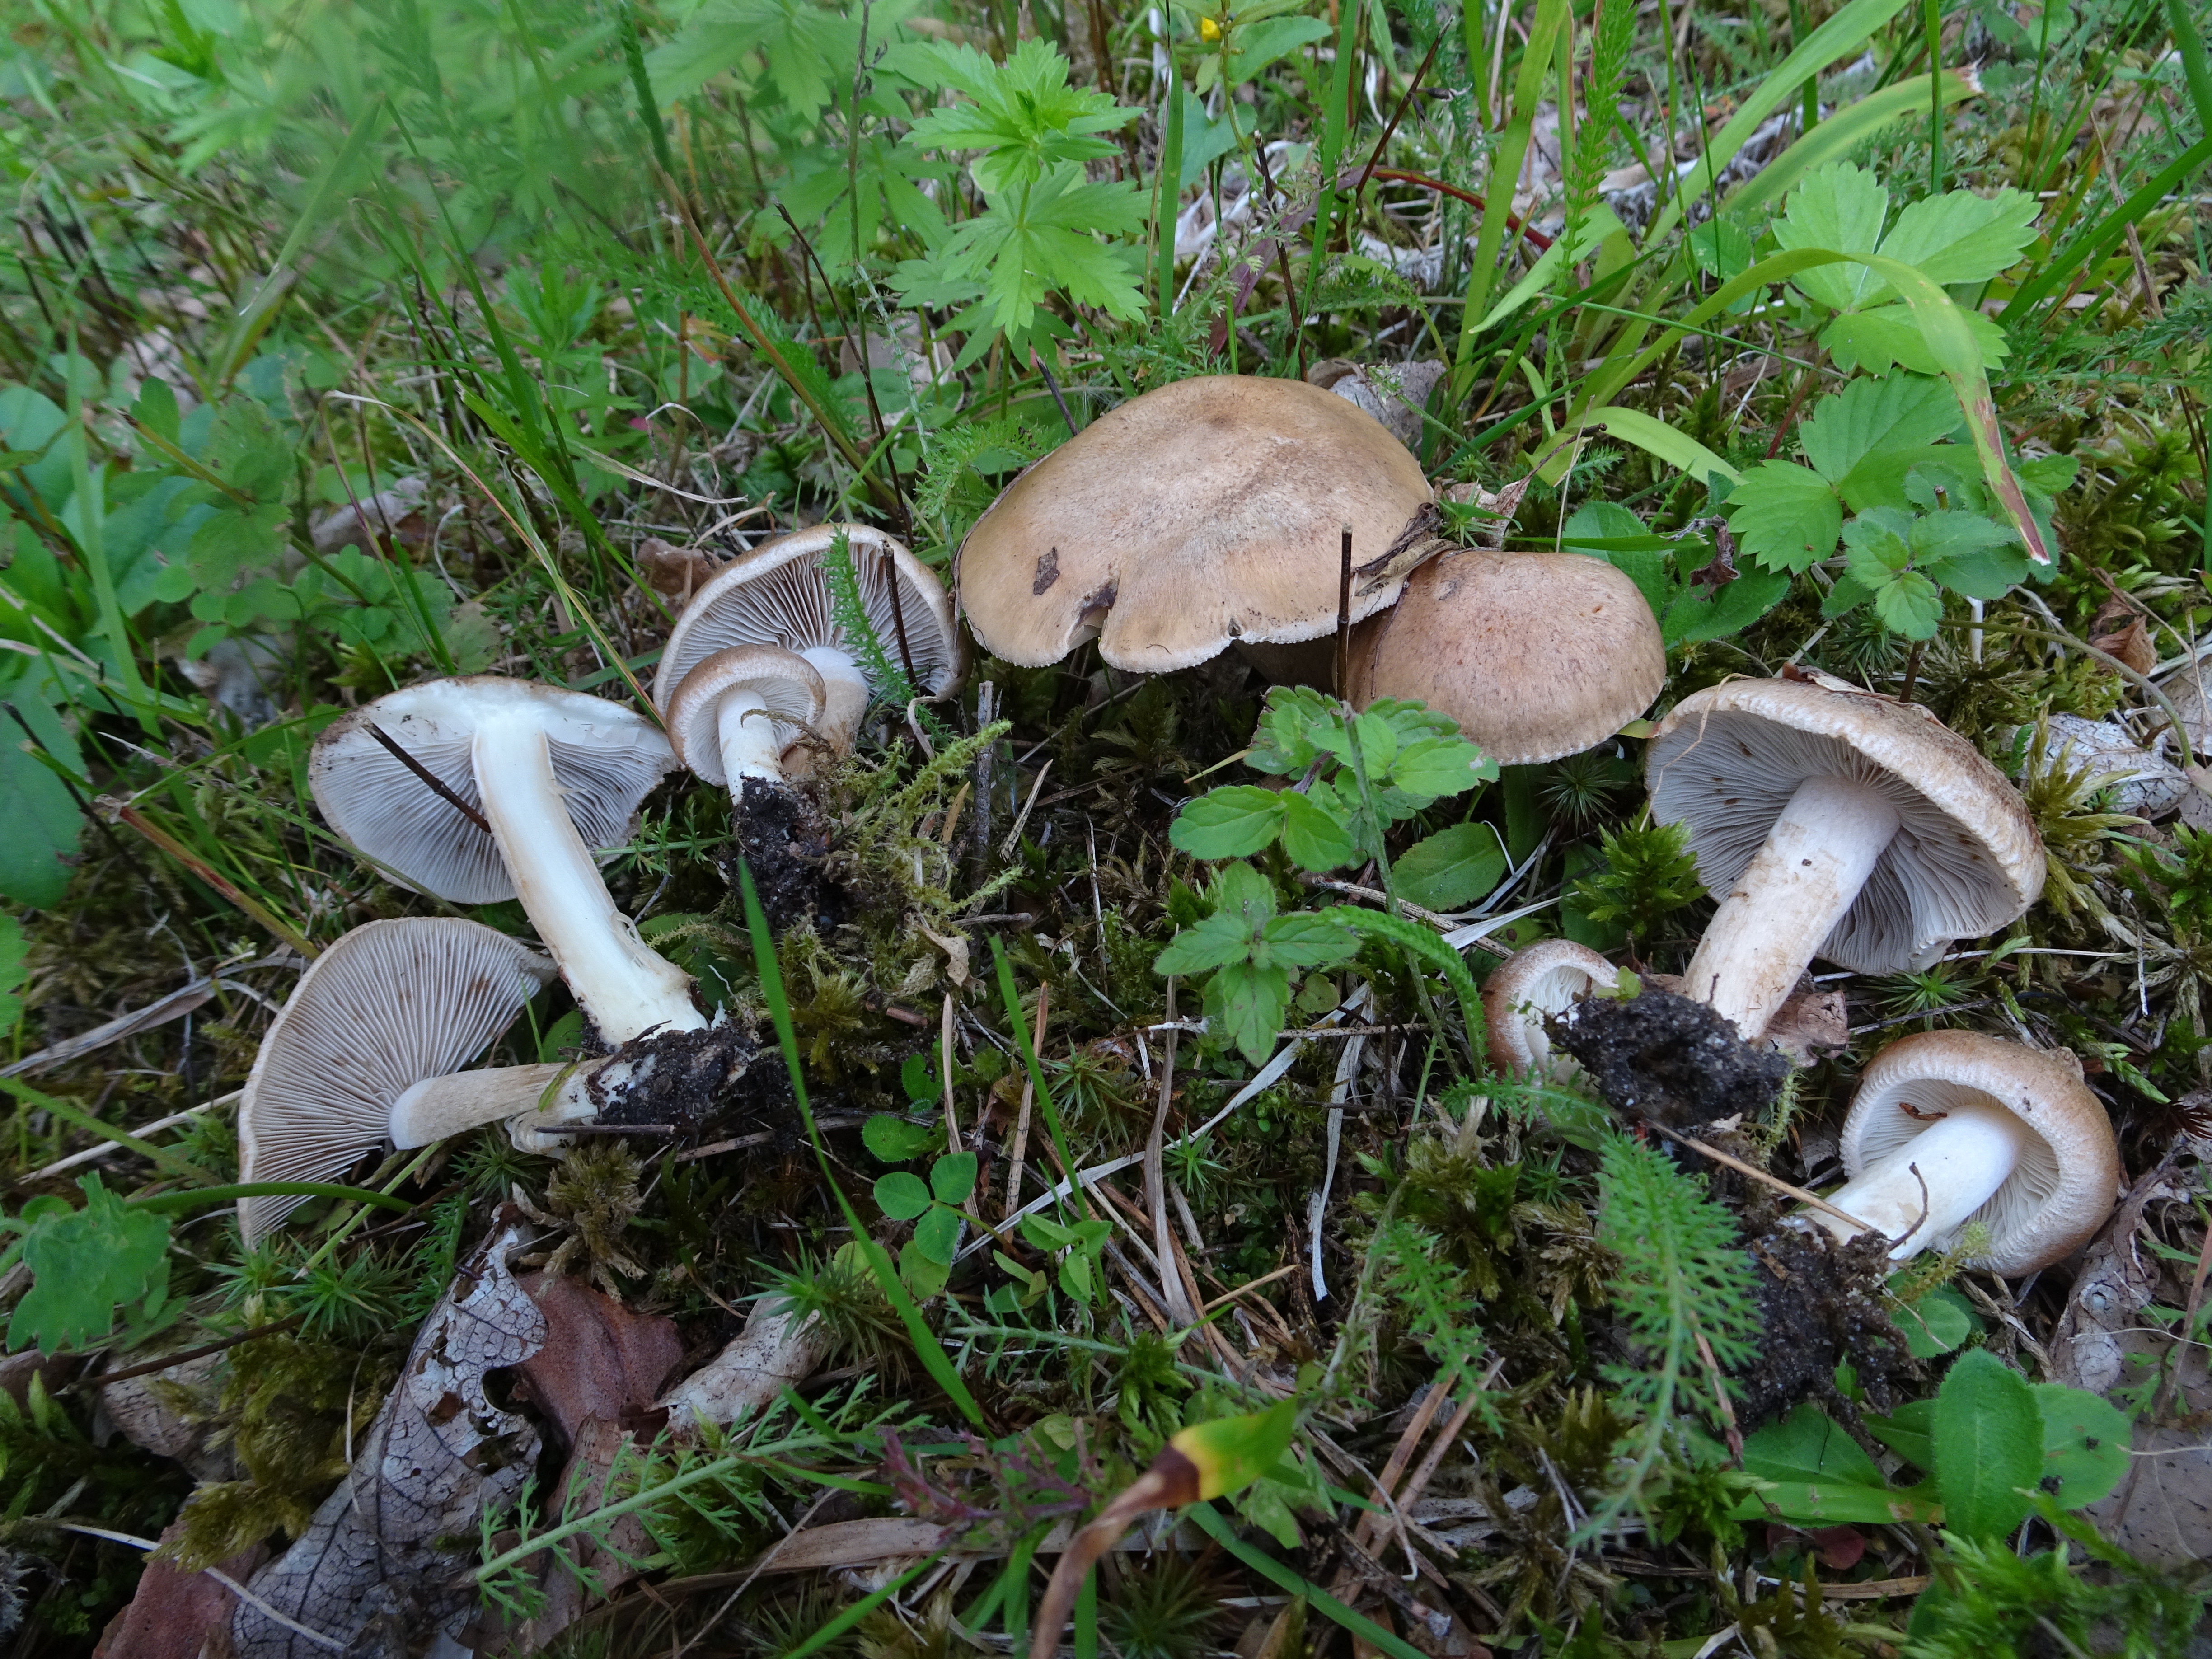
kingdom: Fungi
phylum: Basidiomycota
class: Agaricomycetes
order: Agaricales
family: Inocybaceae
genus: Inocybe
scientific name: Inocybe
